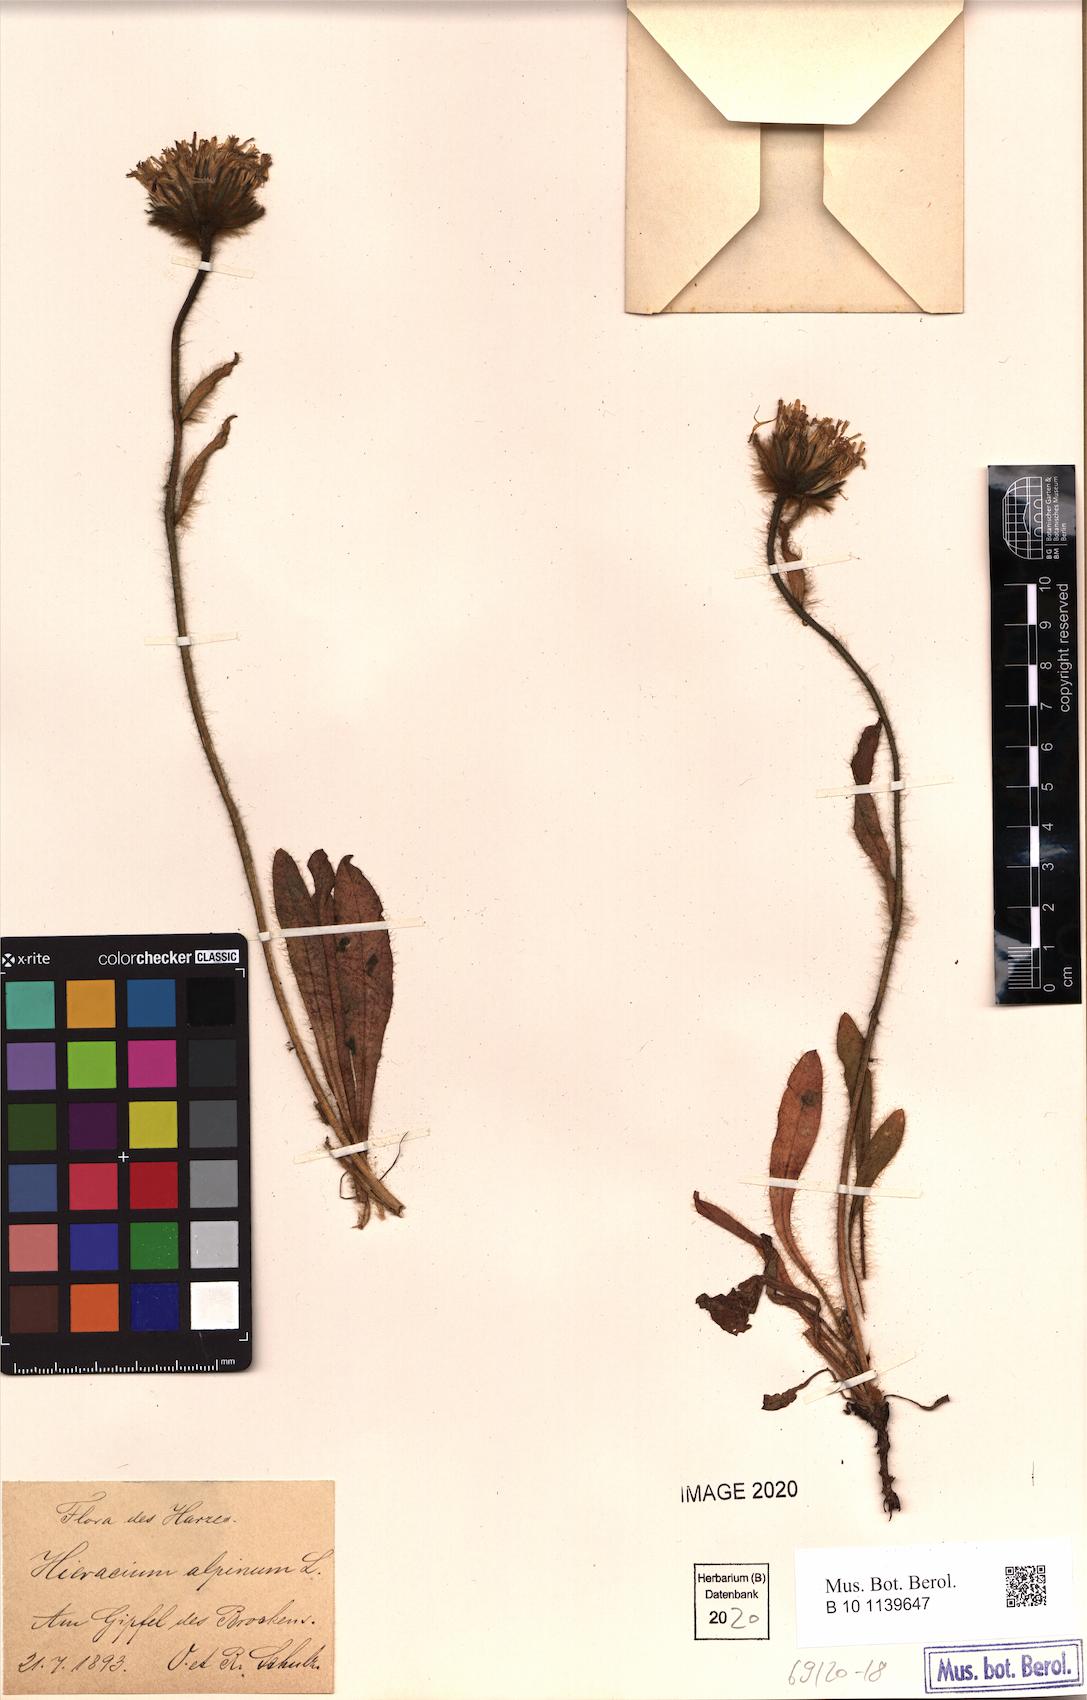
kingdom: Plantae
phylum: Tracheophyta
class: Magnoliopsida
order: Asterales
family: Asteraceae
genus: Hieracium
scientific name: Hieracium alpinum
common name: Alpine hawkweed
